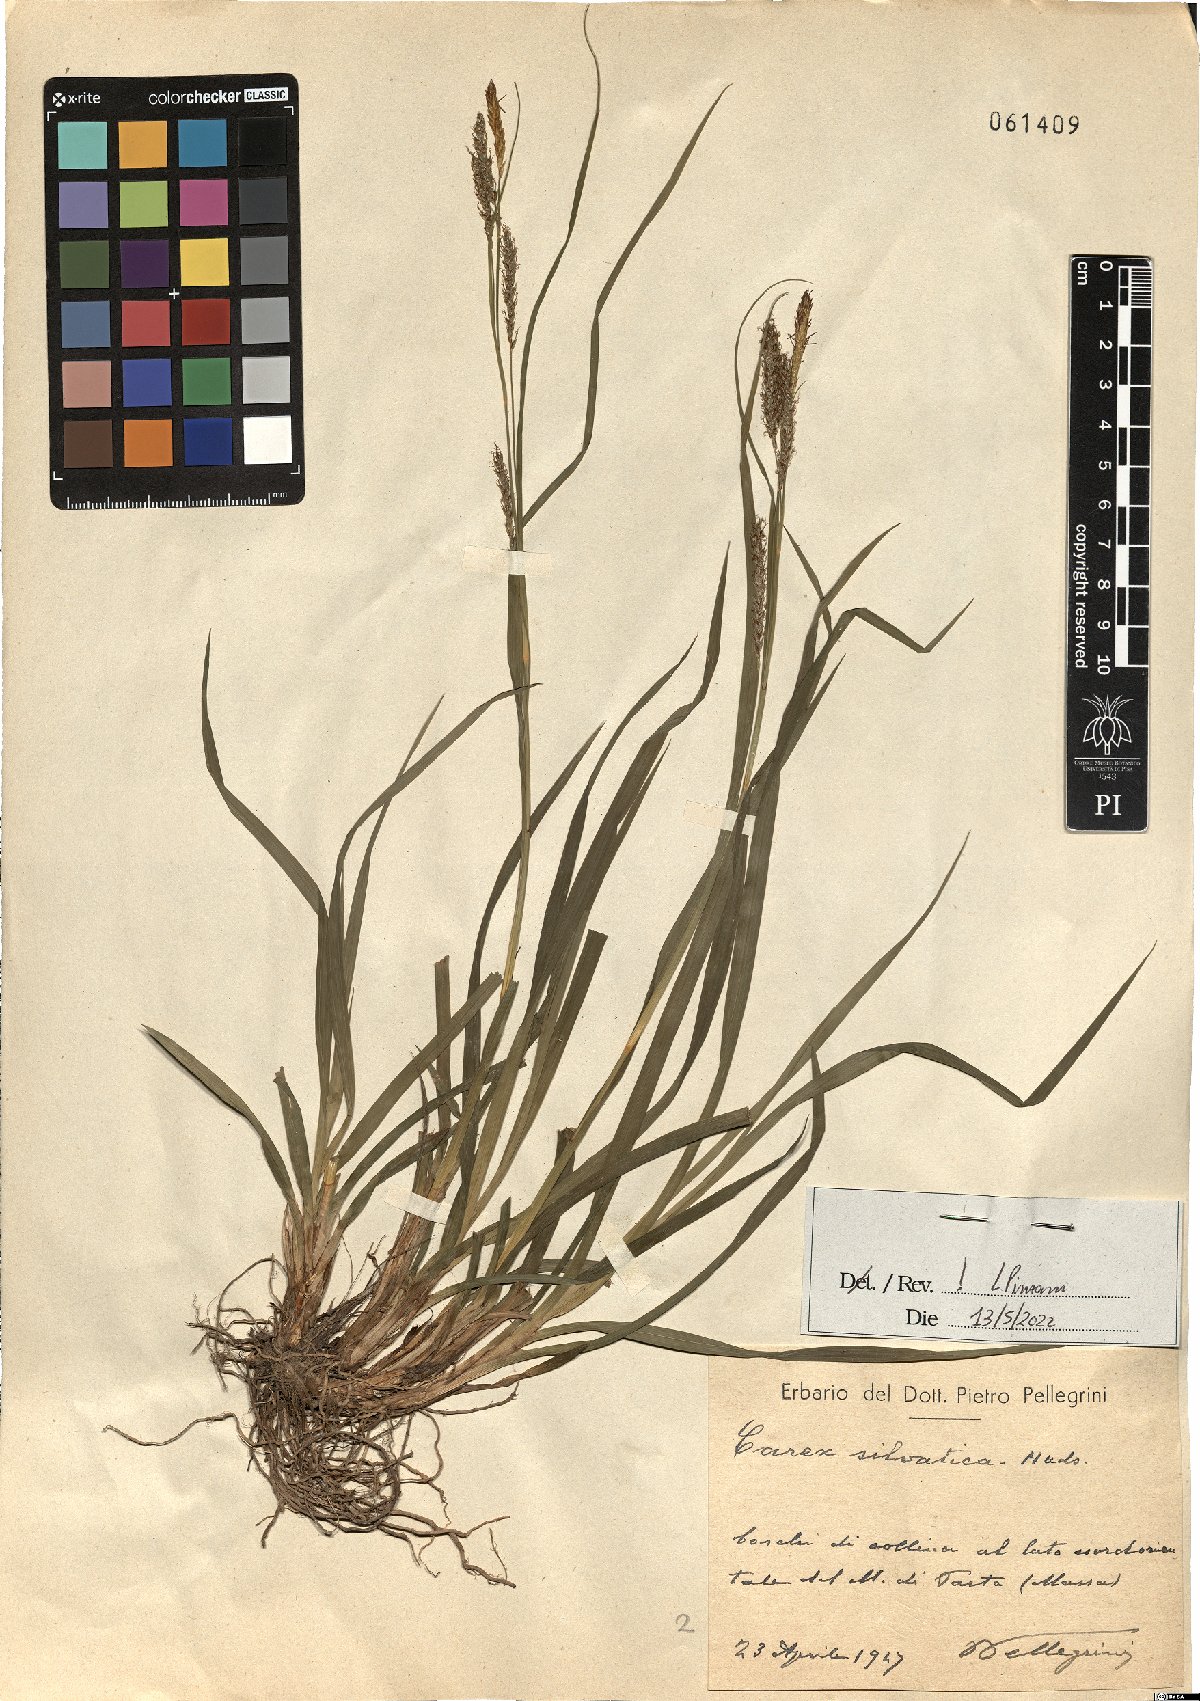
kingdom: Plantae
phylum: Tracheophyta
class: Liliopsida
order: Poales
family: Cyperaceae
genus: Carex
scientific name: Carex sylvatica
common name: Wood-sedge
